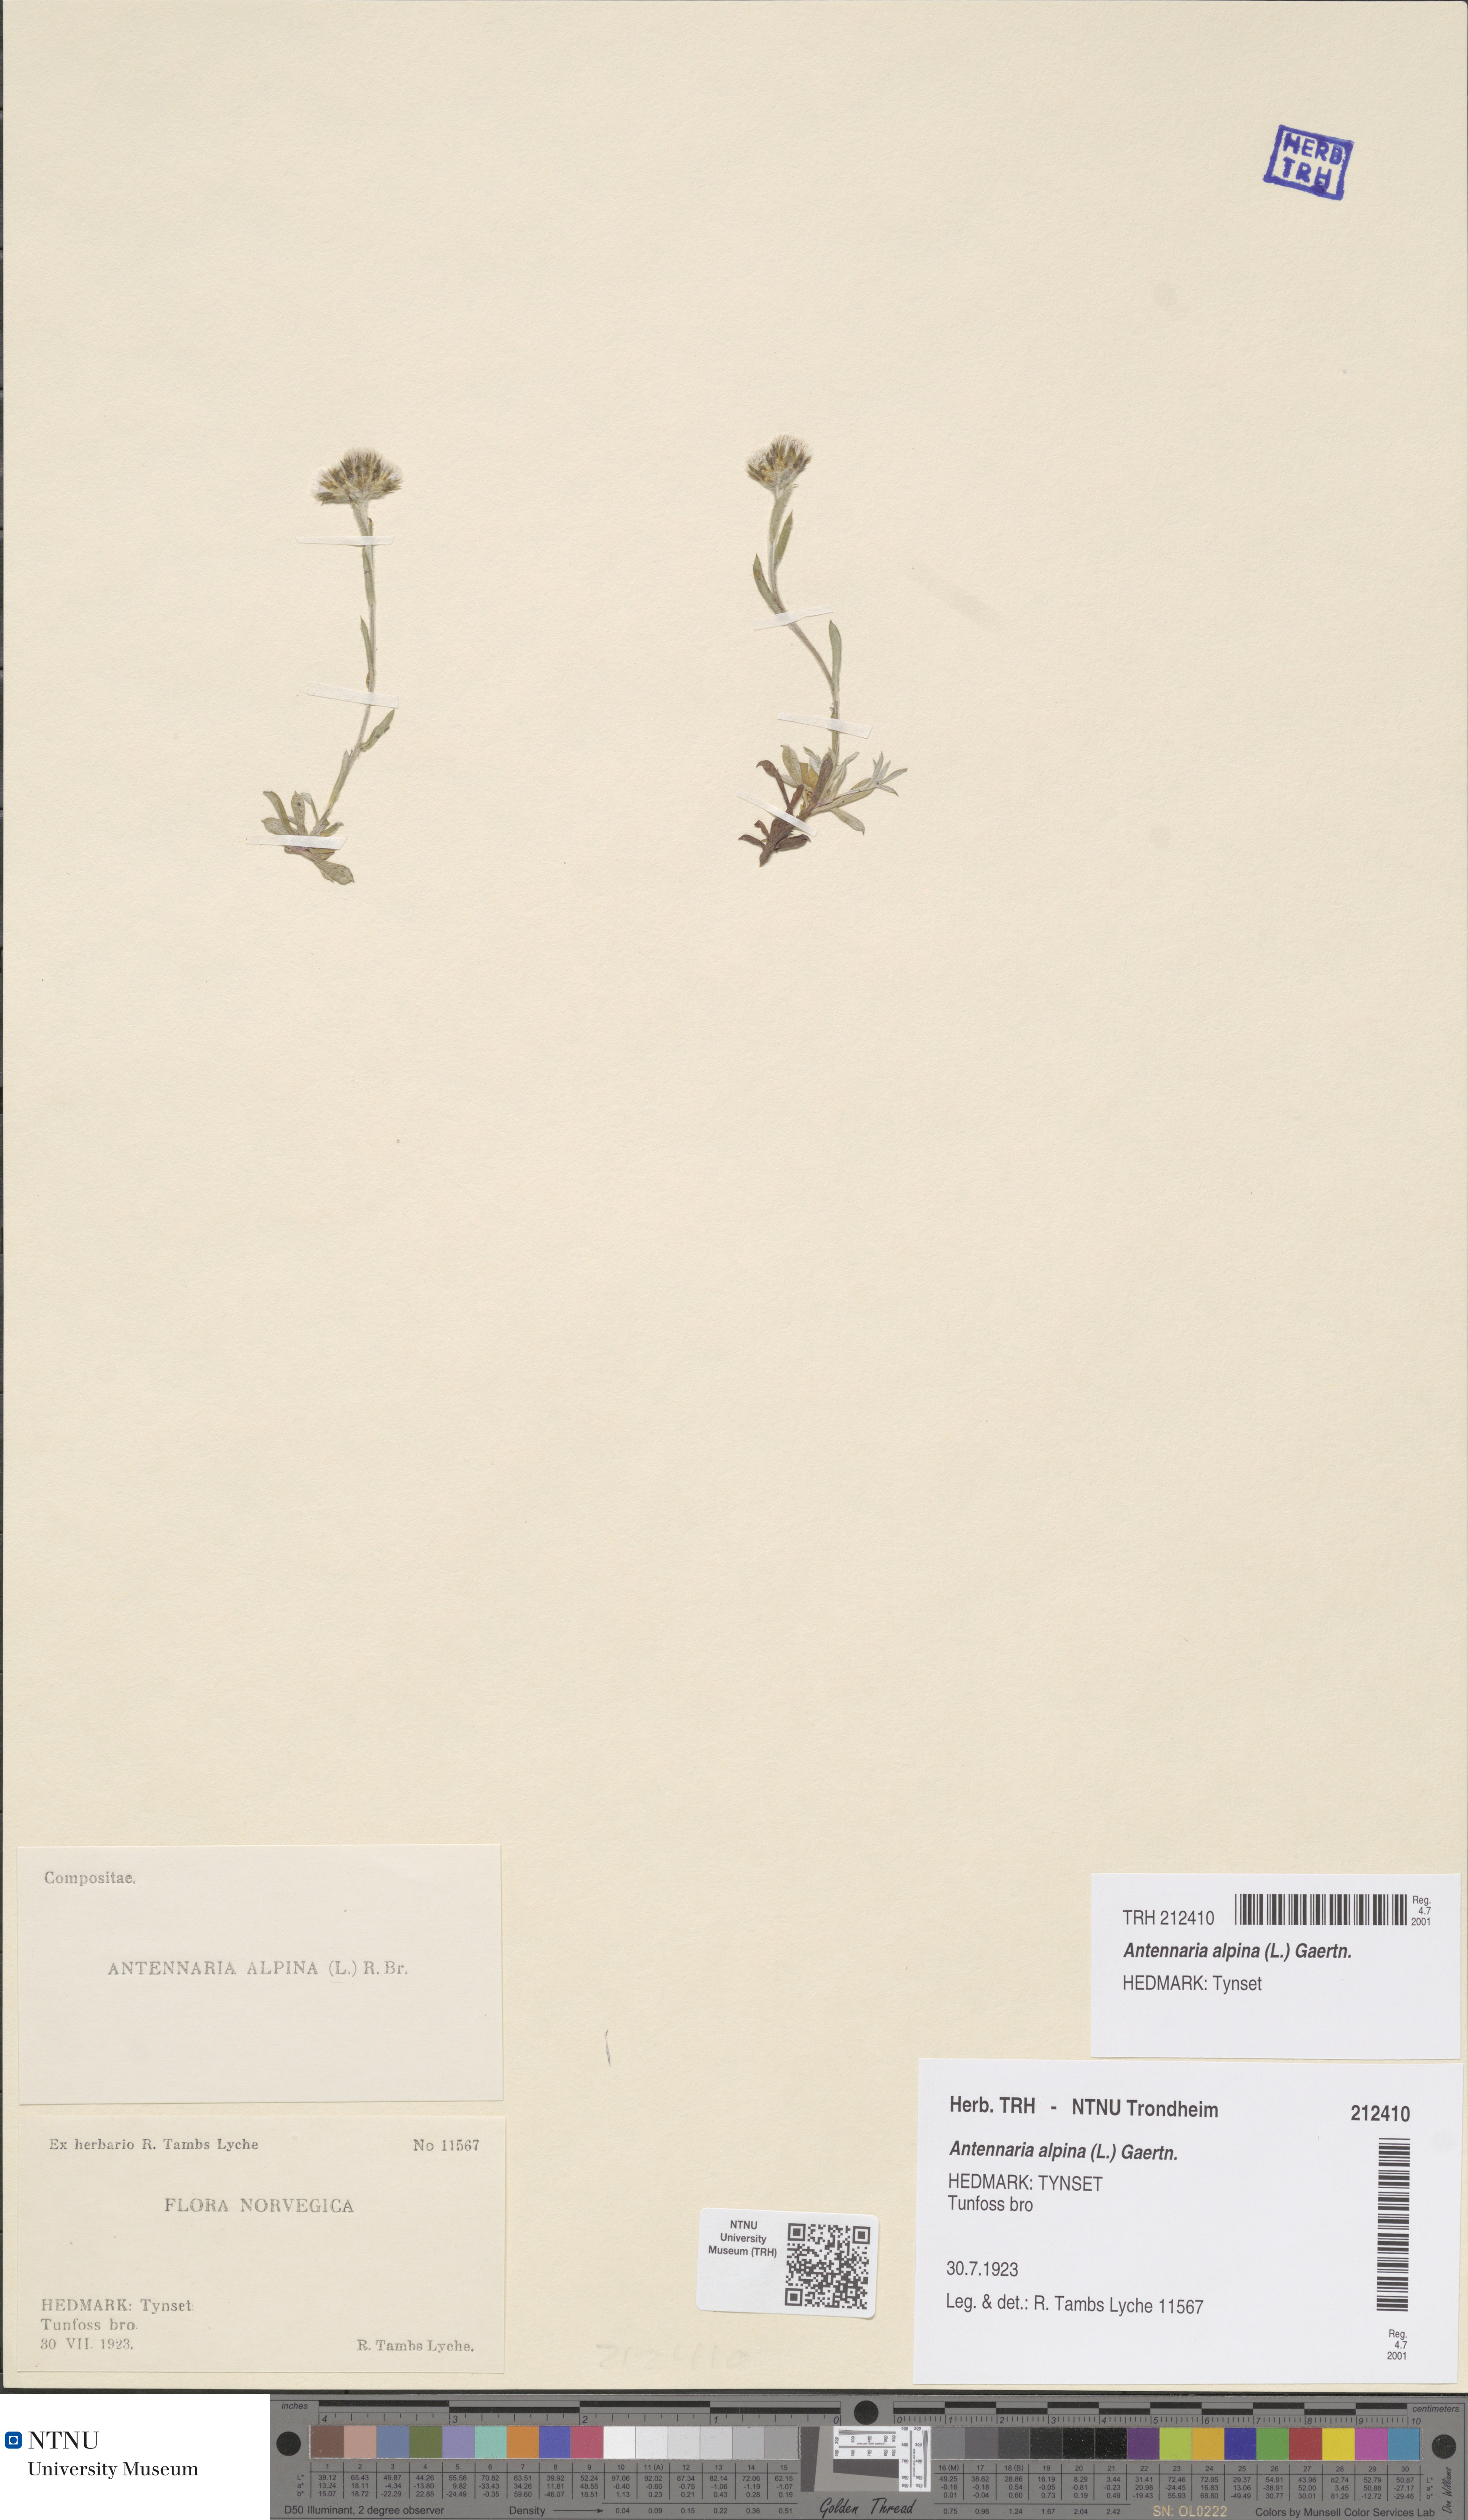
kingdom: Plantae
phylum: Tracheophyta
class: Magnoliopsida
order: Asterales
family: Asteraceae
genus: Antennaria
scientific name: Antennaria alpina
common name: Alpine pussytoes
